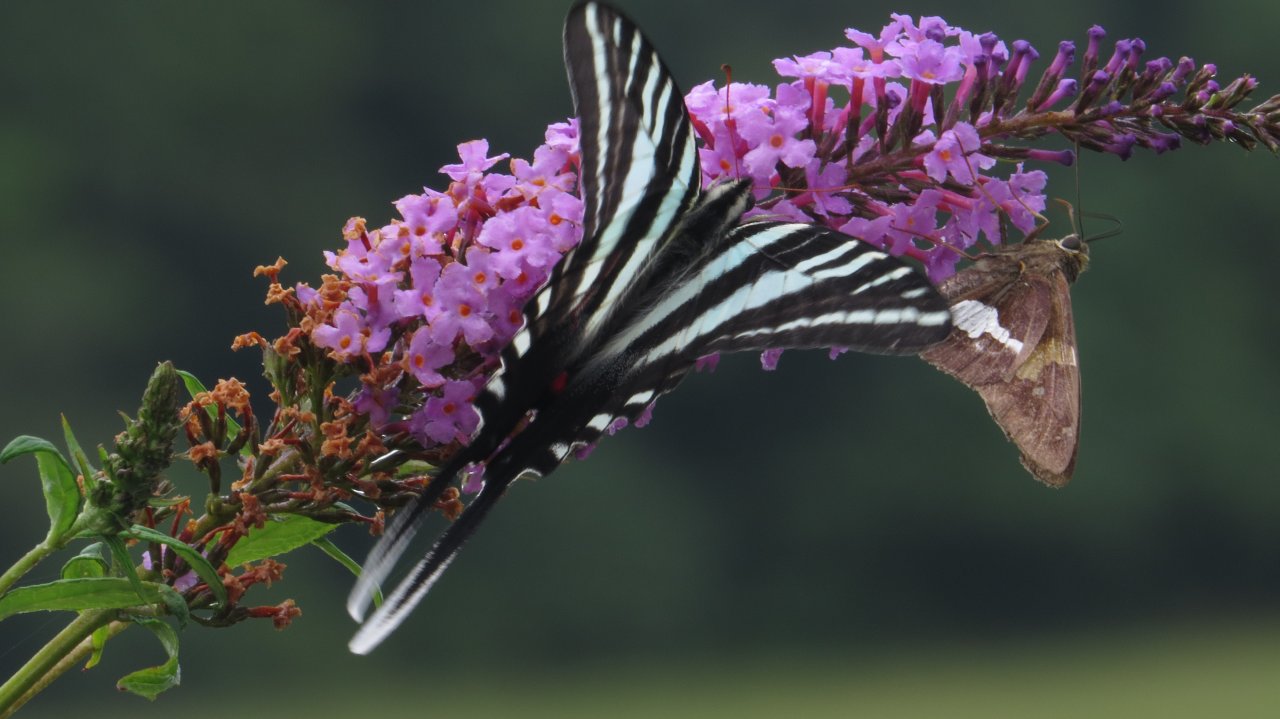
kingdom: Animalia
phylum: Arthropoda
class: Insecta
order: Lepidoptera
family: Papilionidae
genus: Protographium
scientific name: Protographium marcellus
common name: Zebra Swallowtail
